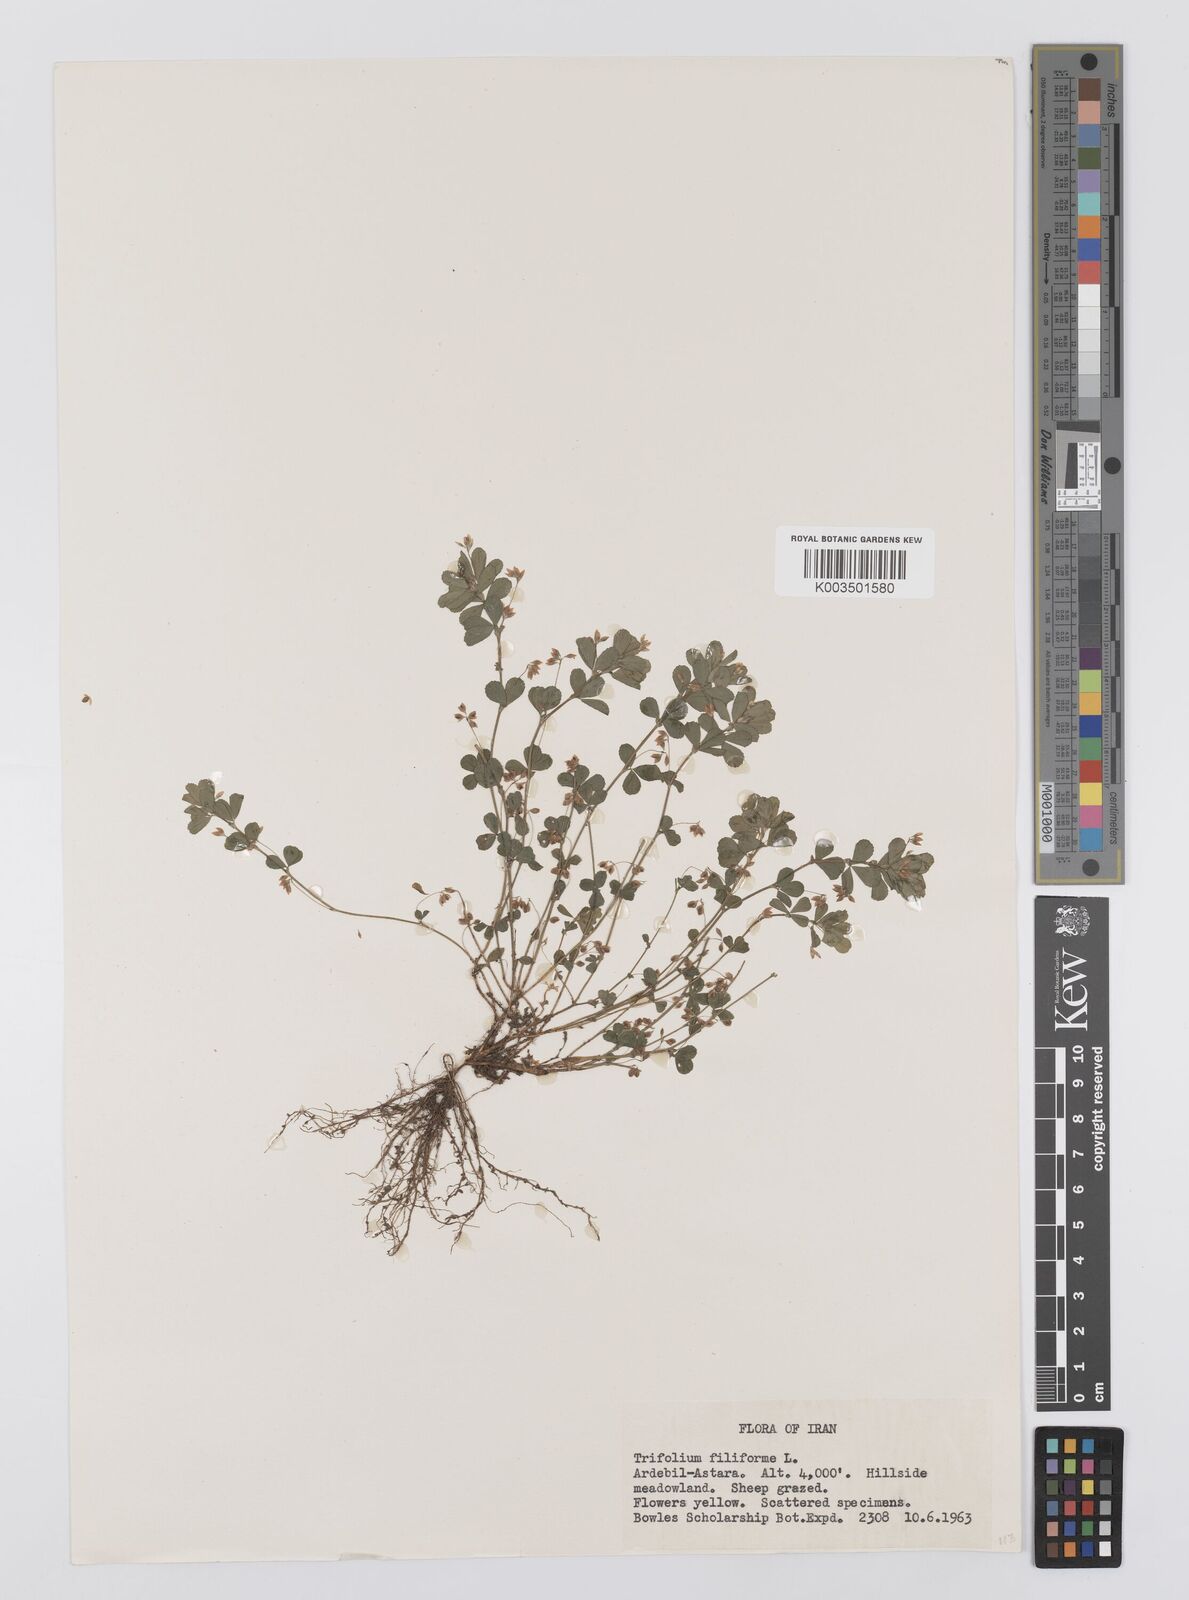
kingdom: Plantae
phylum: Tracheophyta
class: Magnoliopsida
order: Fabales
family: Fabaceae
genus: Trifolium
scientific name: Trifolium micranthum
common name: Slender trefoil
